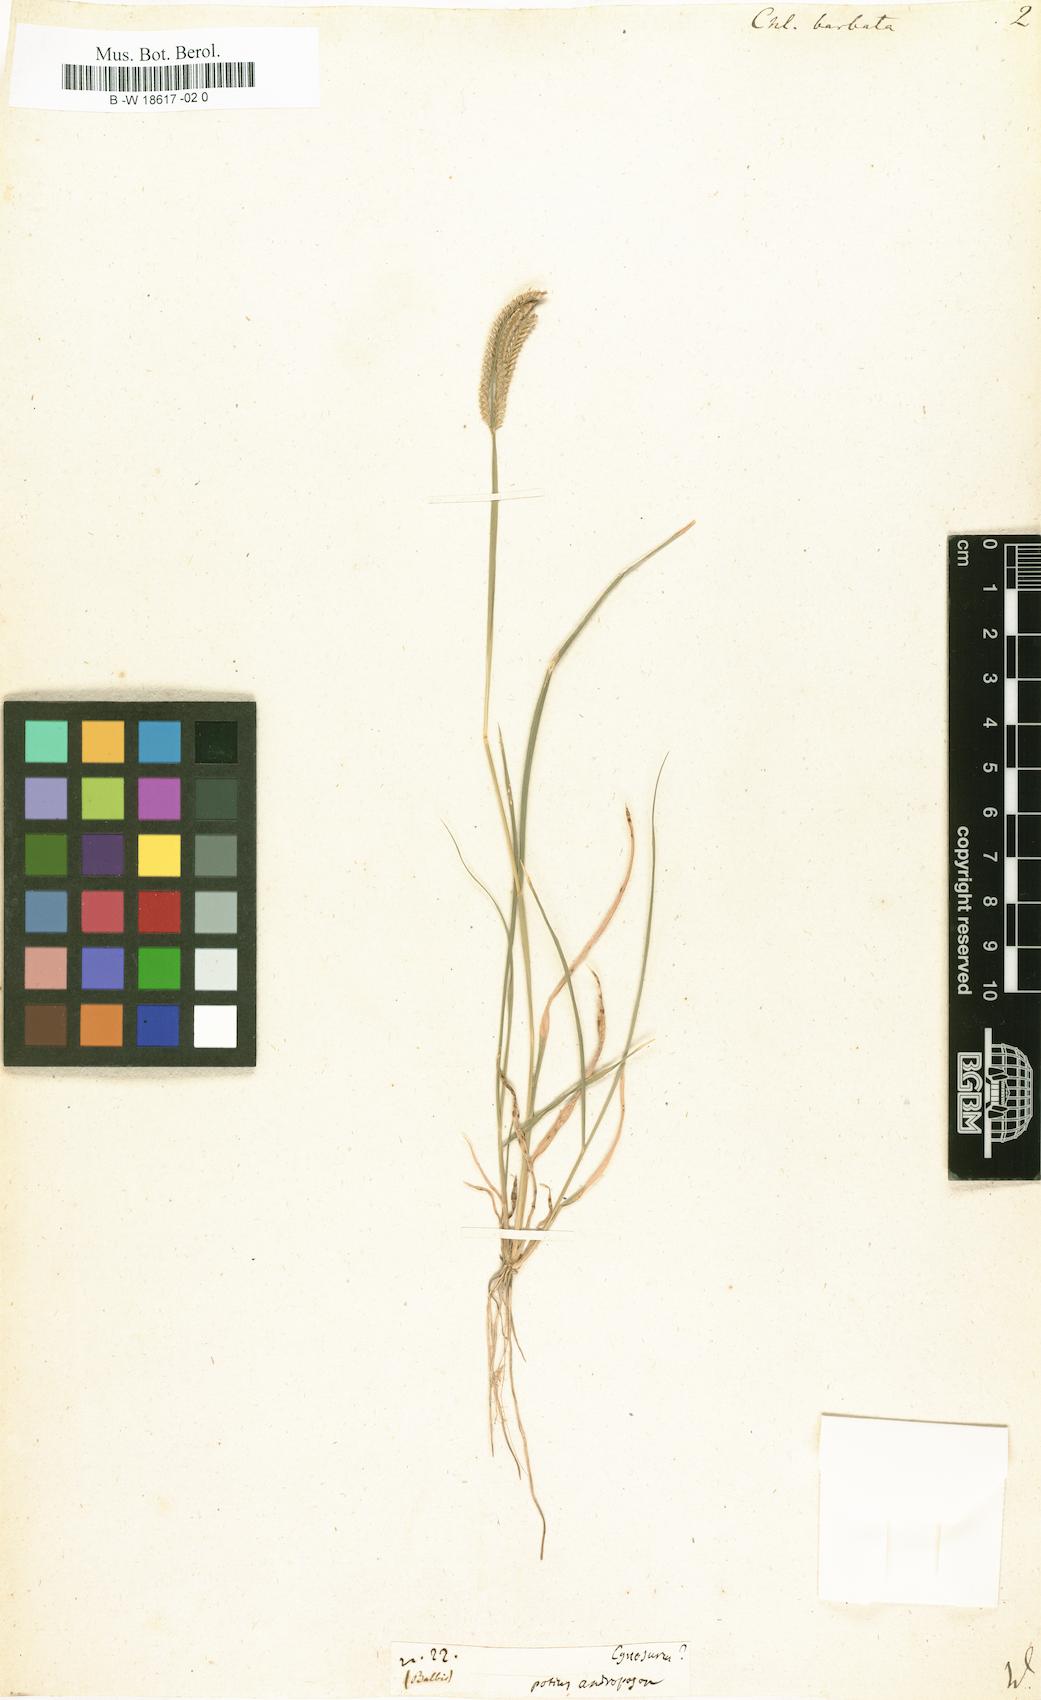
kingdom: Plantae
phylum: Tracheophyta
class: Liliopsida
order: Poales
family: Poaceae
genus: Chloris
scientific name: Chloris barbata
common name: Swollen fingergrass
